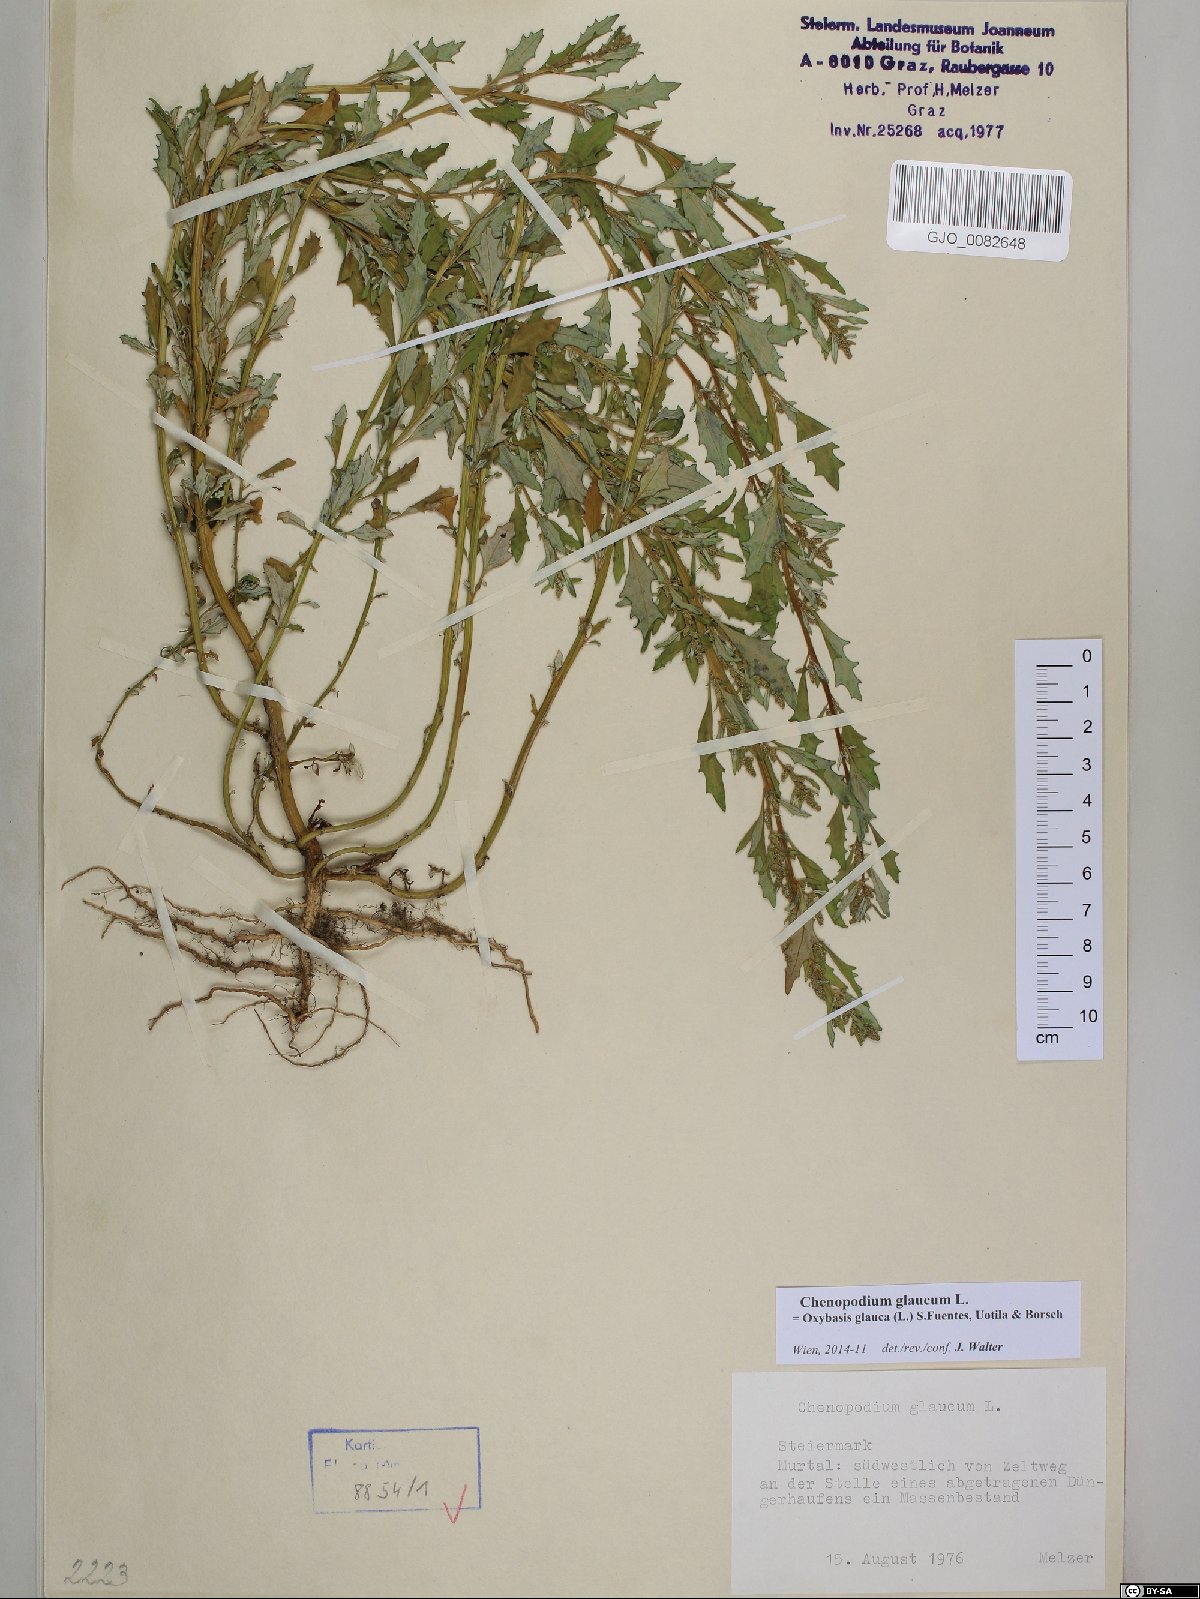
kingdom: Plantae
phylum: Tracheophyta
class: Magnoliopsida
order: Caryophyllales
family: Amaranthaceae
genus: Oxybasis
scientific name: Oxybasis glauca
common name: Glaucous goosefoot
